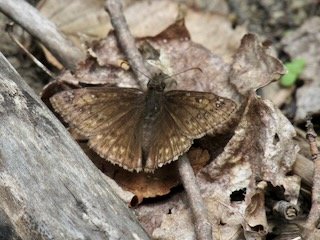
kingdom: Animalia
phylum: Arthropoda
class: Insecta
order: Lepidoptera
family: Hesperiidae
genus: Gesta
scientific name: Gesta
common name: Juvenal's Duskywing
